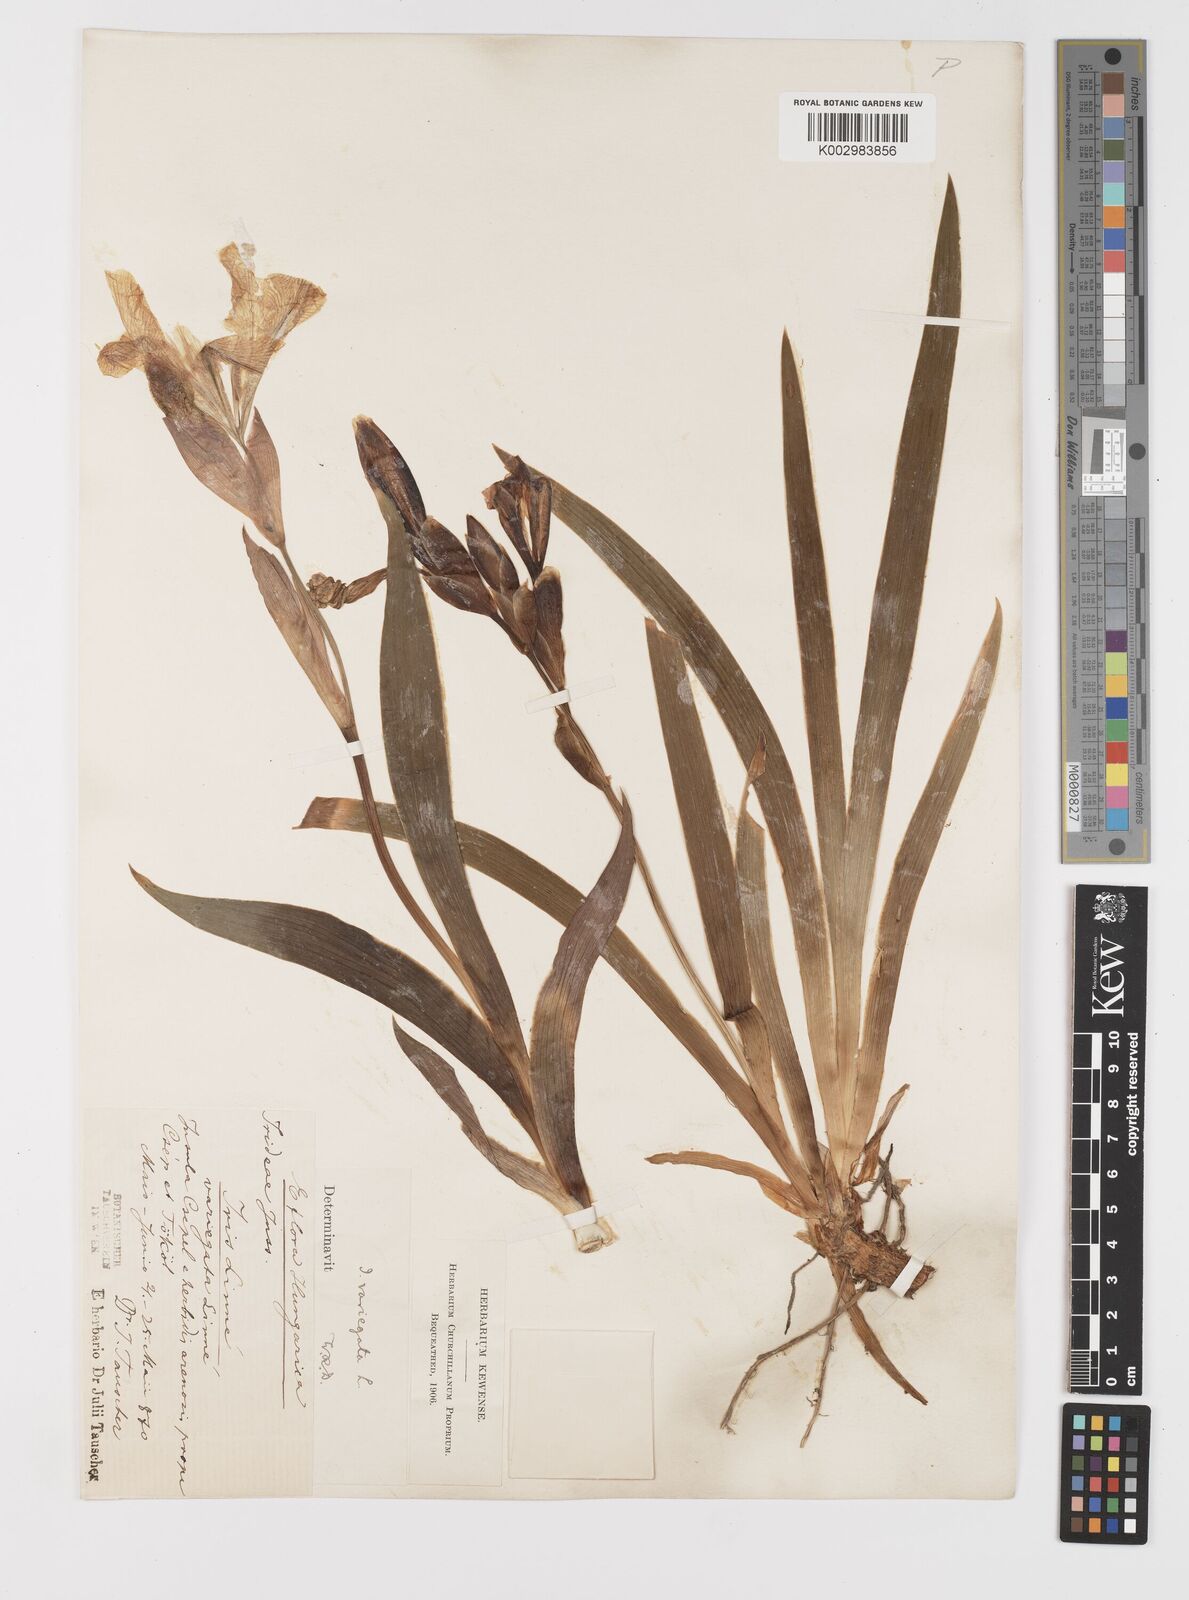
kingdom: Plantae
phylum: Tracheophyta
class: Liliopsida
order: Asparagales
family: Iridaceae
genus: Iris
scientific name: Iris variegata
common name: Hungarian iris
